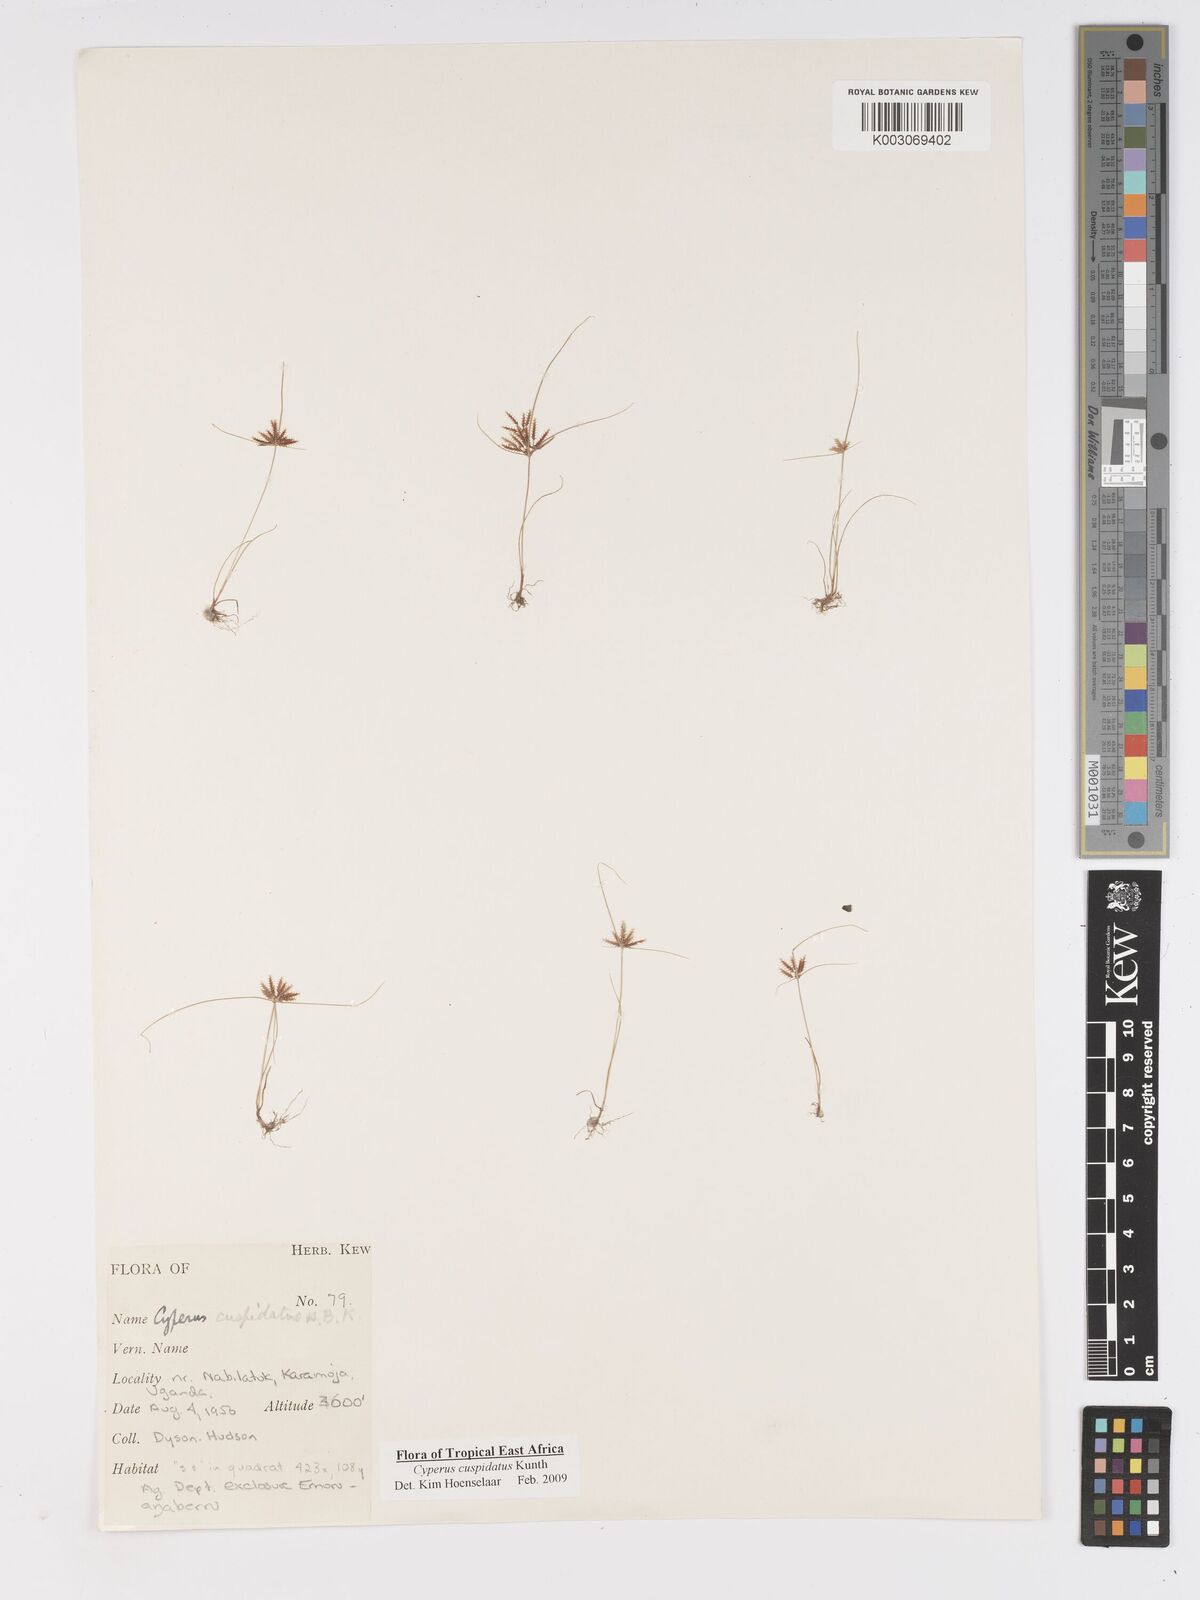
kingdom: Plantae
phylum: Tracheophyta
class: Liliopsida
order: Poales
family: Cyperaceae
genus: Cyperus
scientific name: Cyperus cuspidatus
